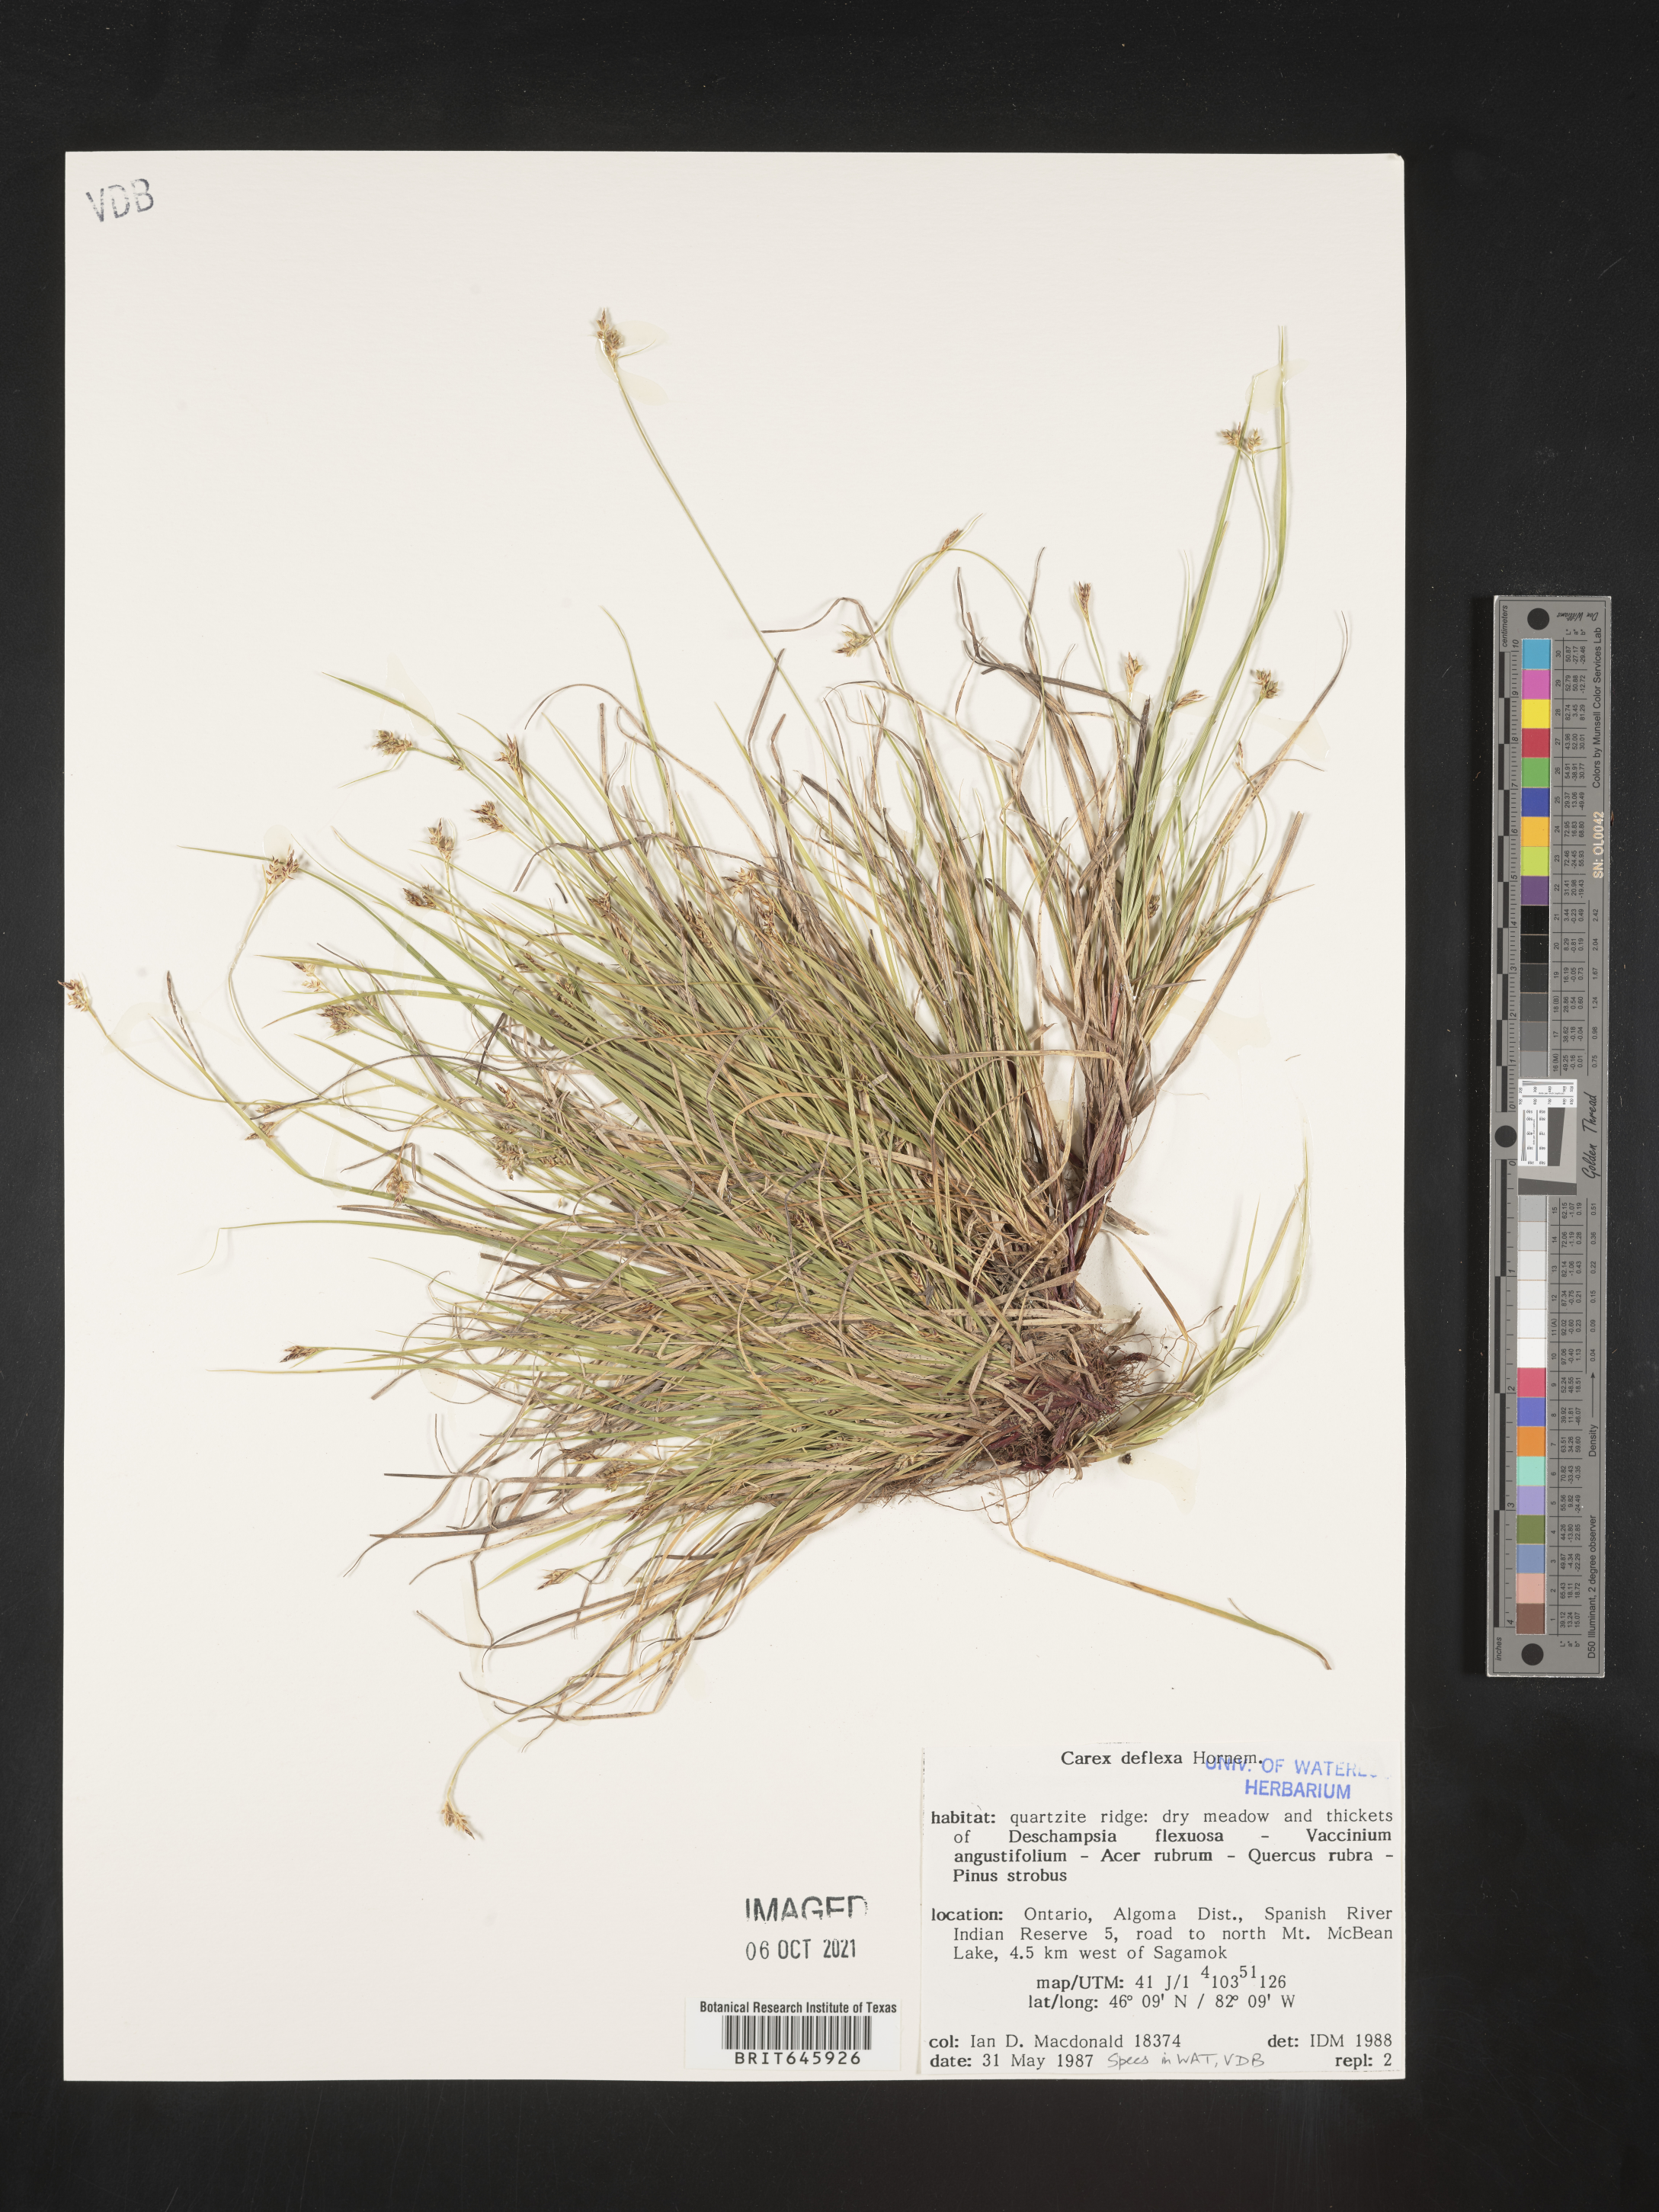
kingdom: Plantae
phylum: Tracheophyta
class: Liliopsida
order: Poales
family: Cyperaceae
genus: Carex
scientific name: Carex deflexa
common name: Bent northern sedge
